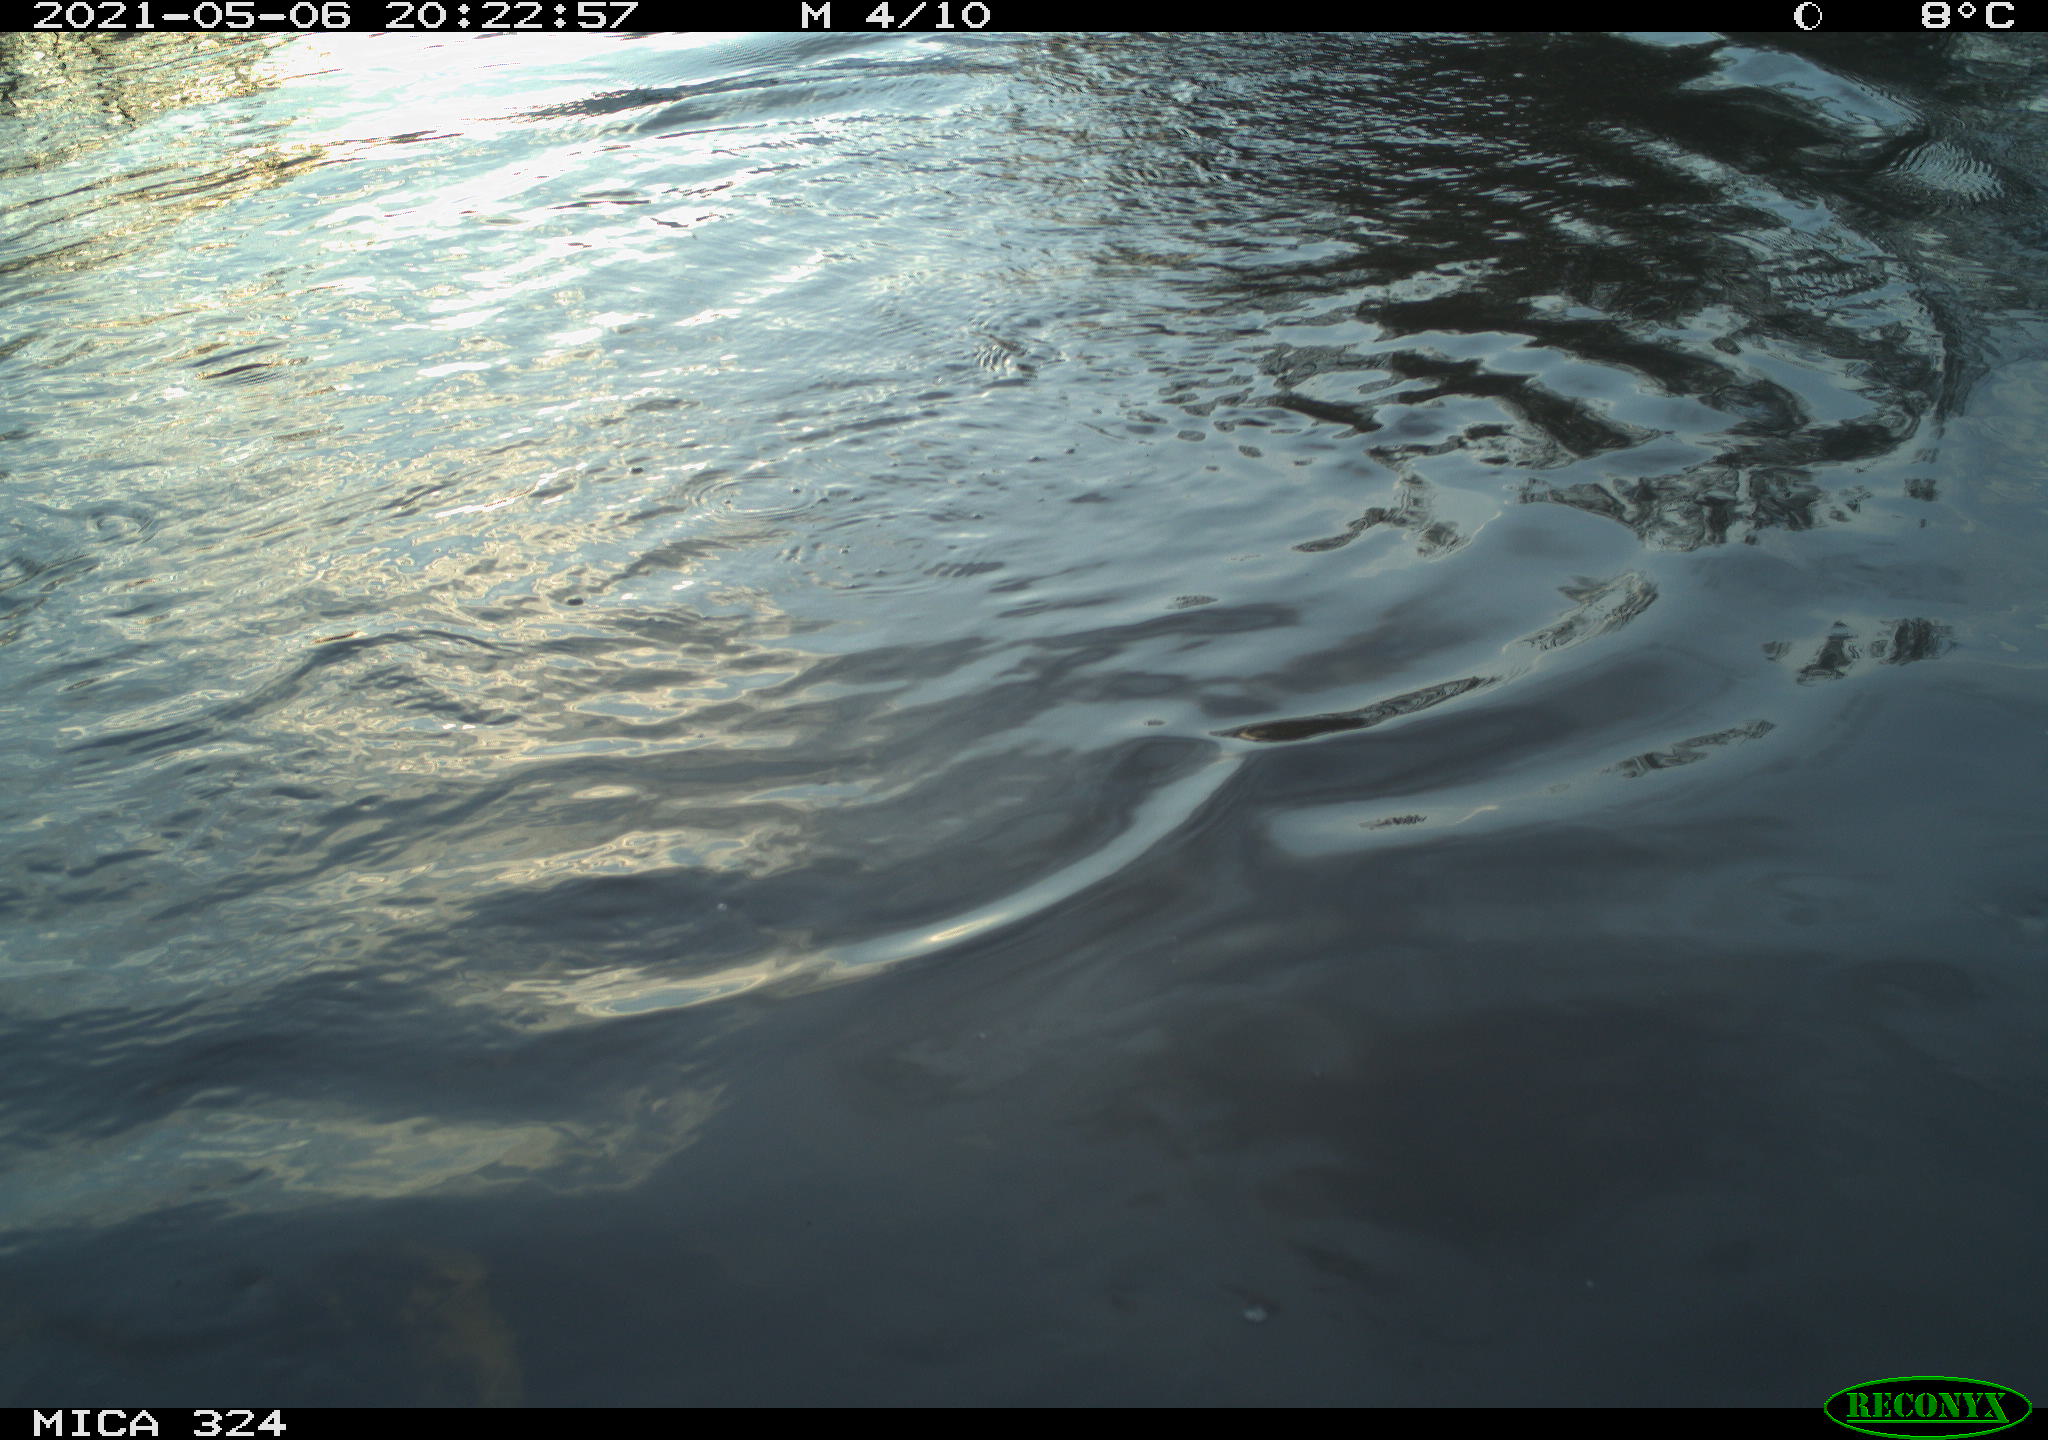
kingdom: Animalia
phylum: Chordata
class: Aves
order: Anseriformes
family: Anatidae
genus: Anas
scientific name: Anas platyrhynchos
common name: Mallard
